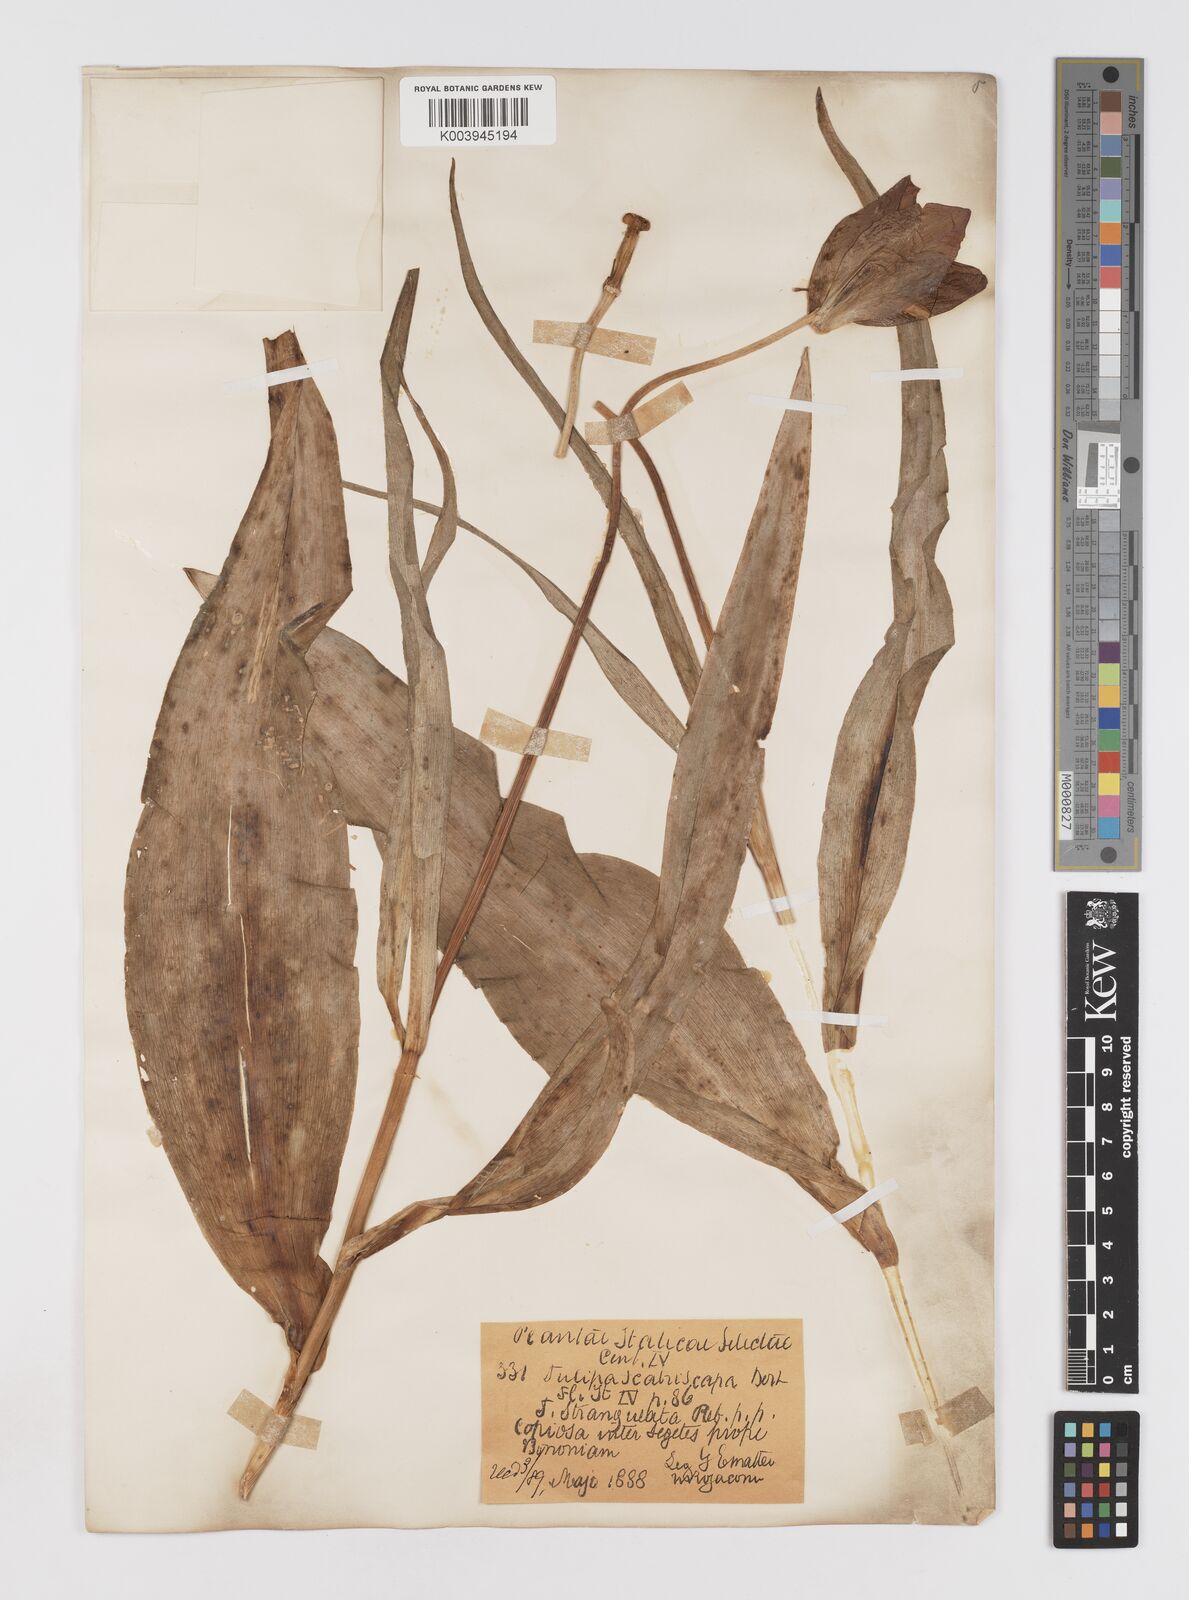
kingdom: Plantae
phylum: Tracheophyta
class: Liliopsida
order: Liliales
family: Liliaceae
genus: Tulipa
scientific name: Tulipa gesneriana
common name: Garden tulip
